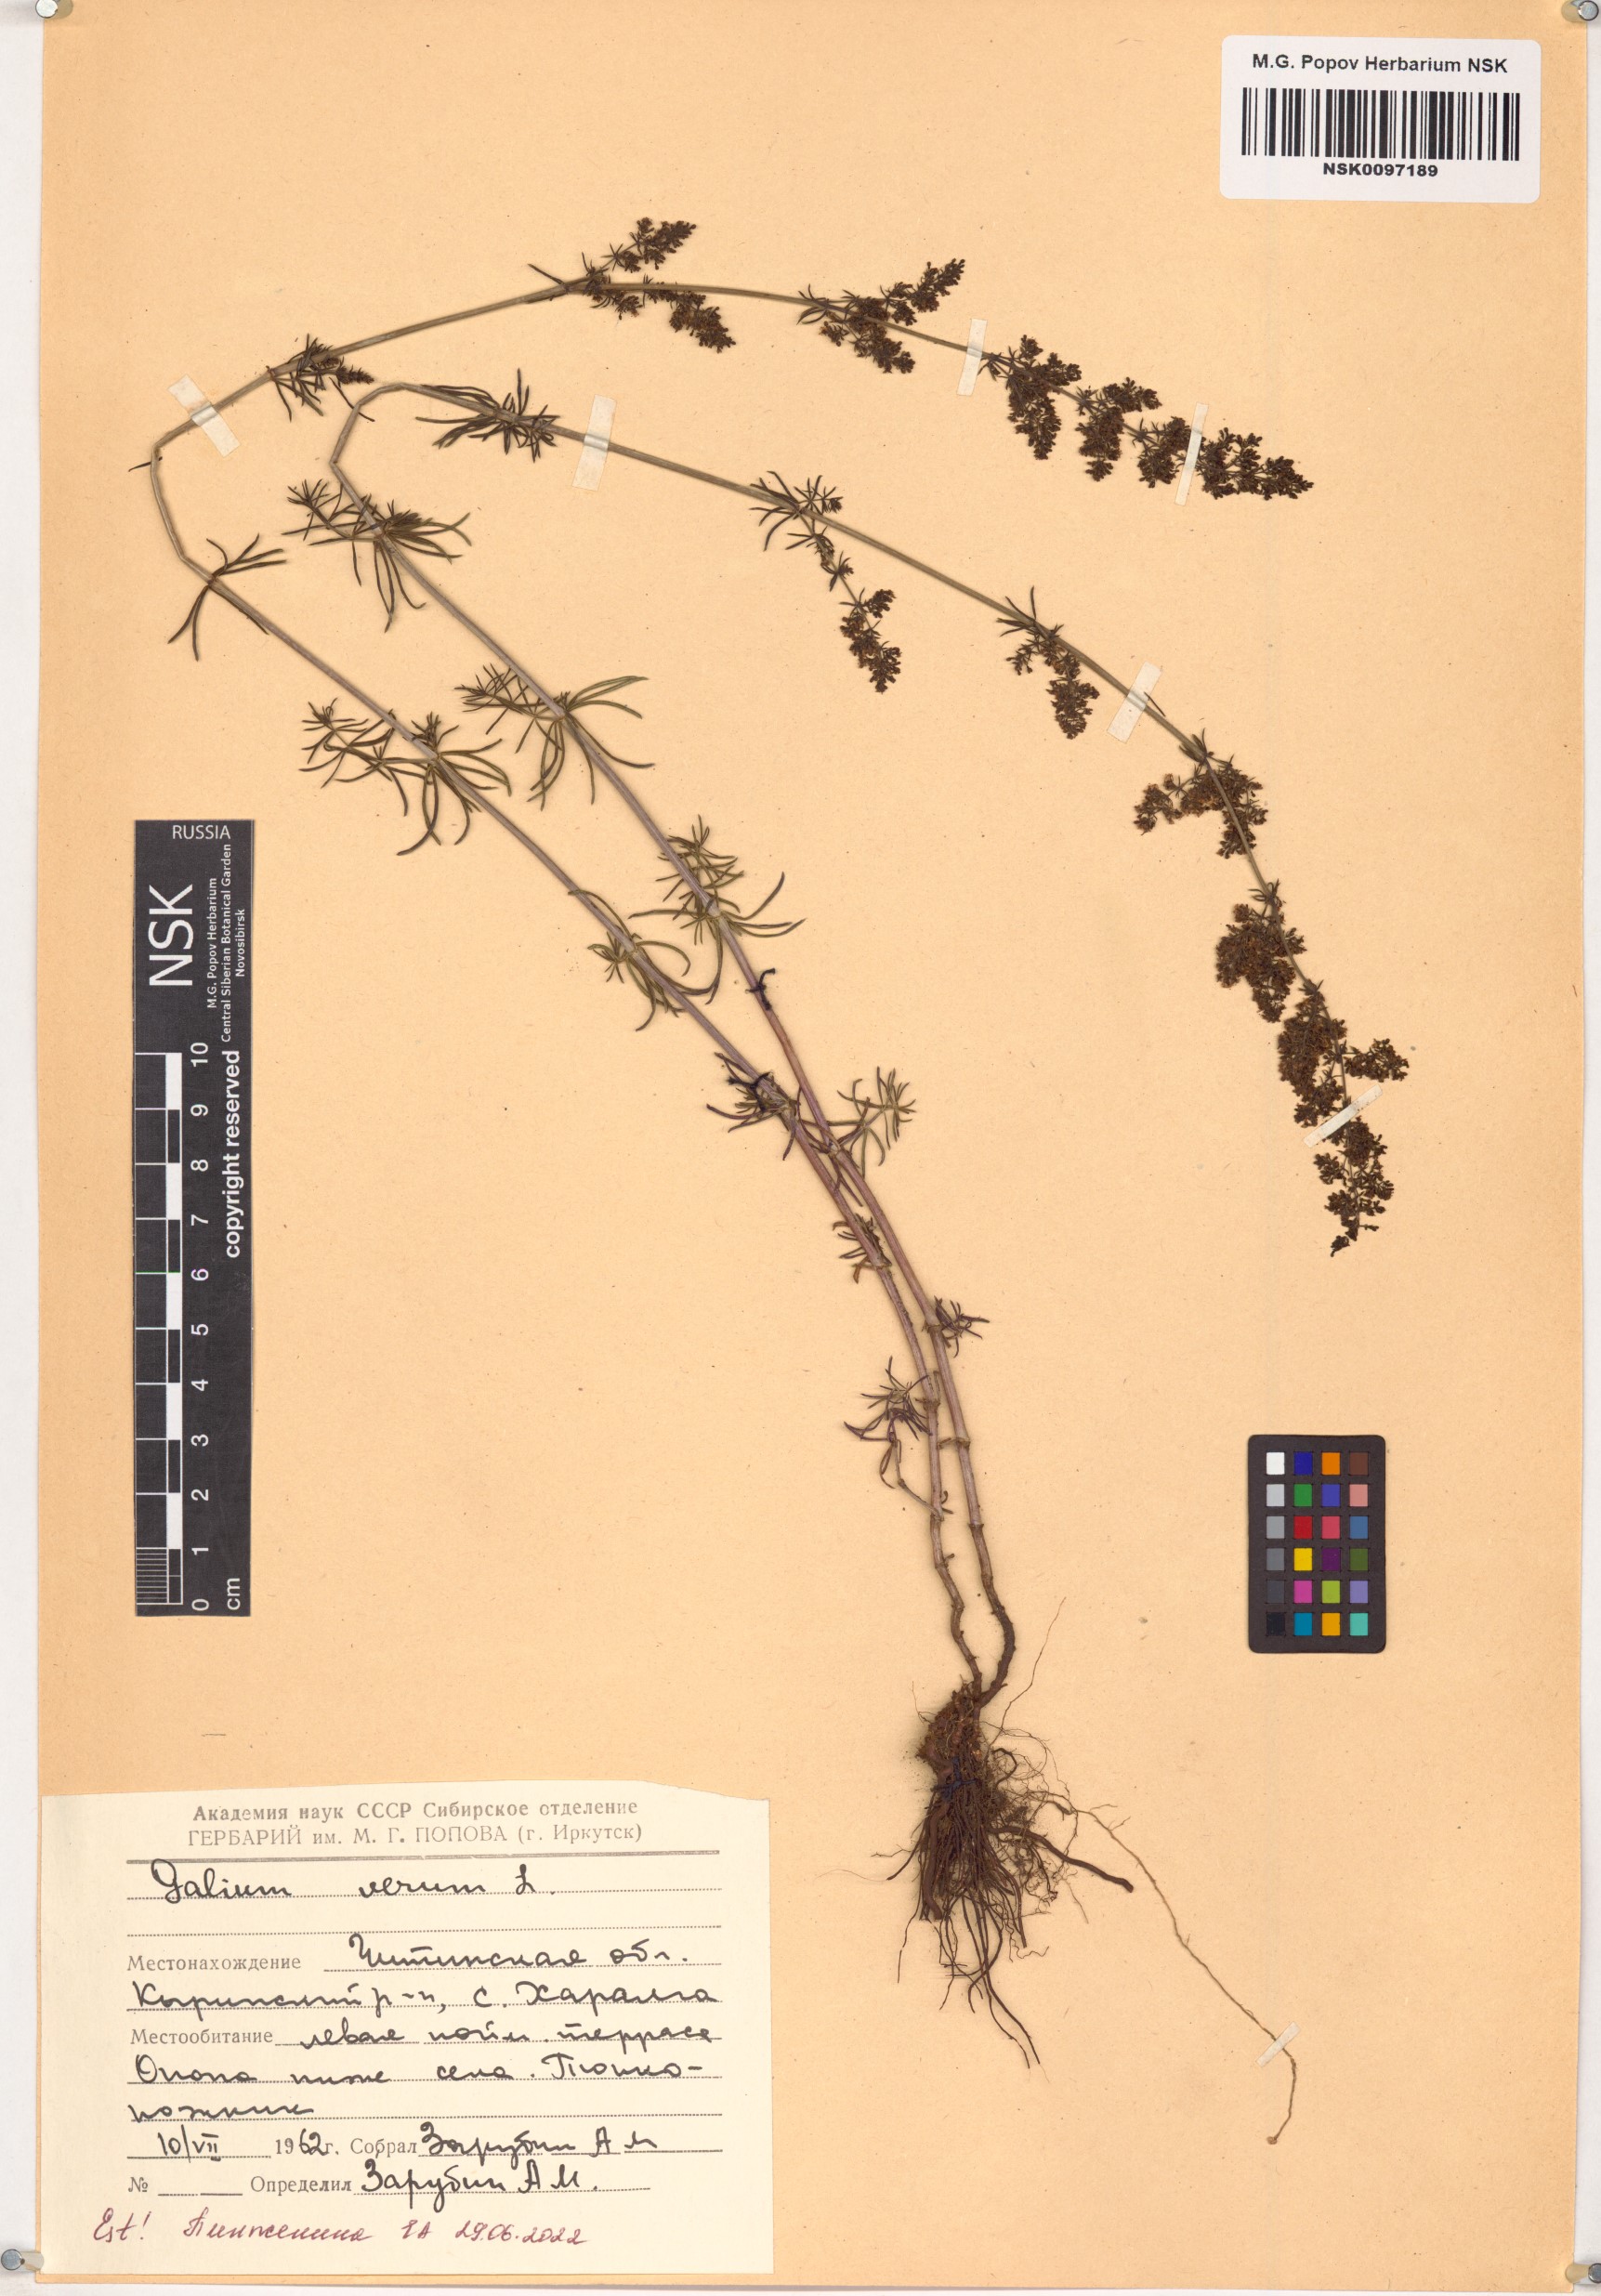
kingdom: Plantae
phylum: Tracheophyta
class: Magnoliopsida
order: Gentianales
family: Rubiaceae
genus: Galium
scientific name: Galium verum
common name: Lady's bedstraw
